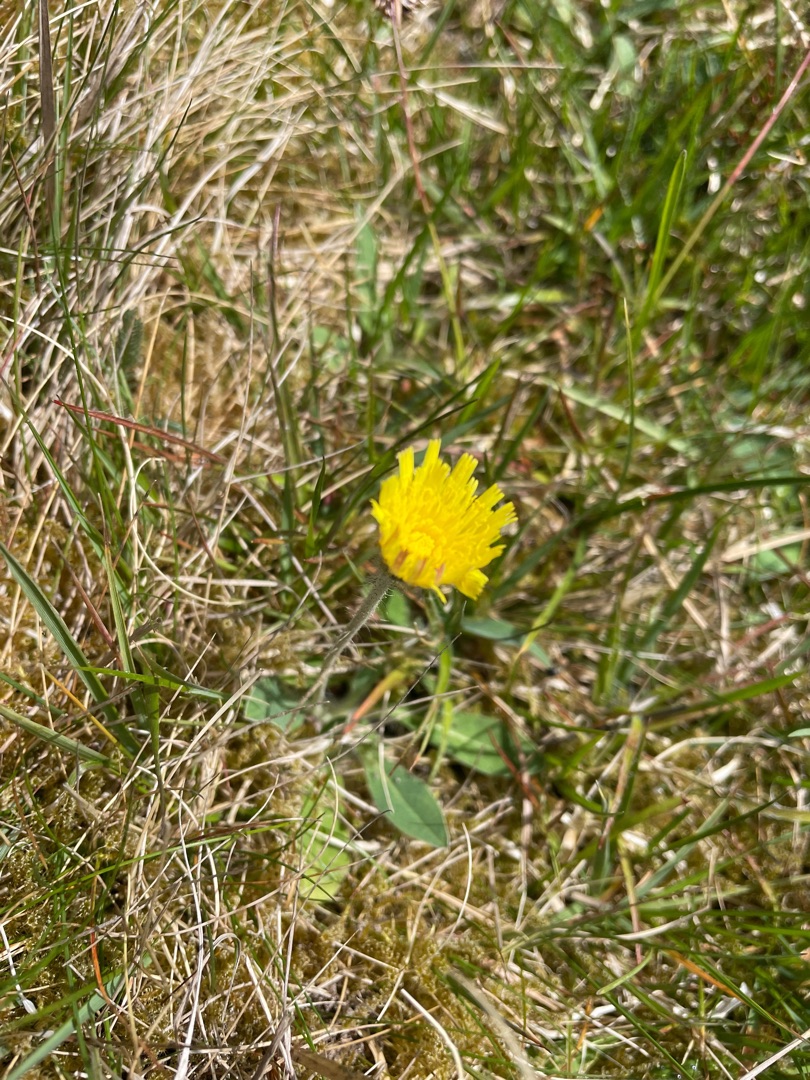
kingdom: Plantae
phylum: Tracheophyta
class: Magnoliopsida
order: Asterales
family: Asteraceae
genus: Pilosella
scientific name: Pilosella officinarum
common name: Håret høgeurt
